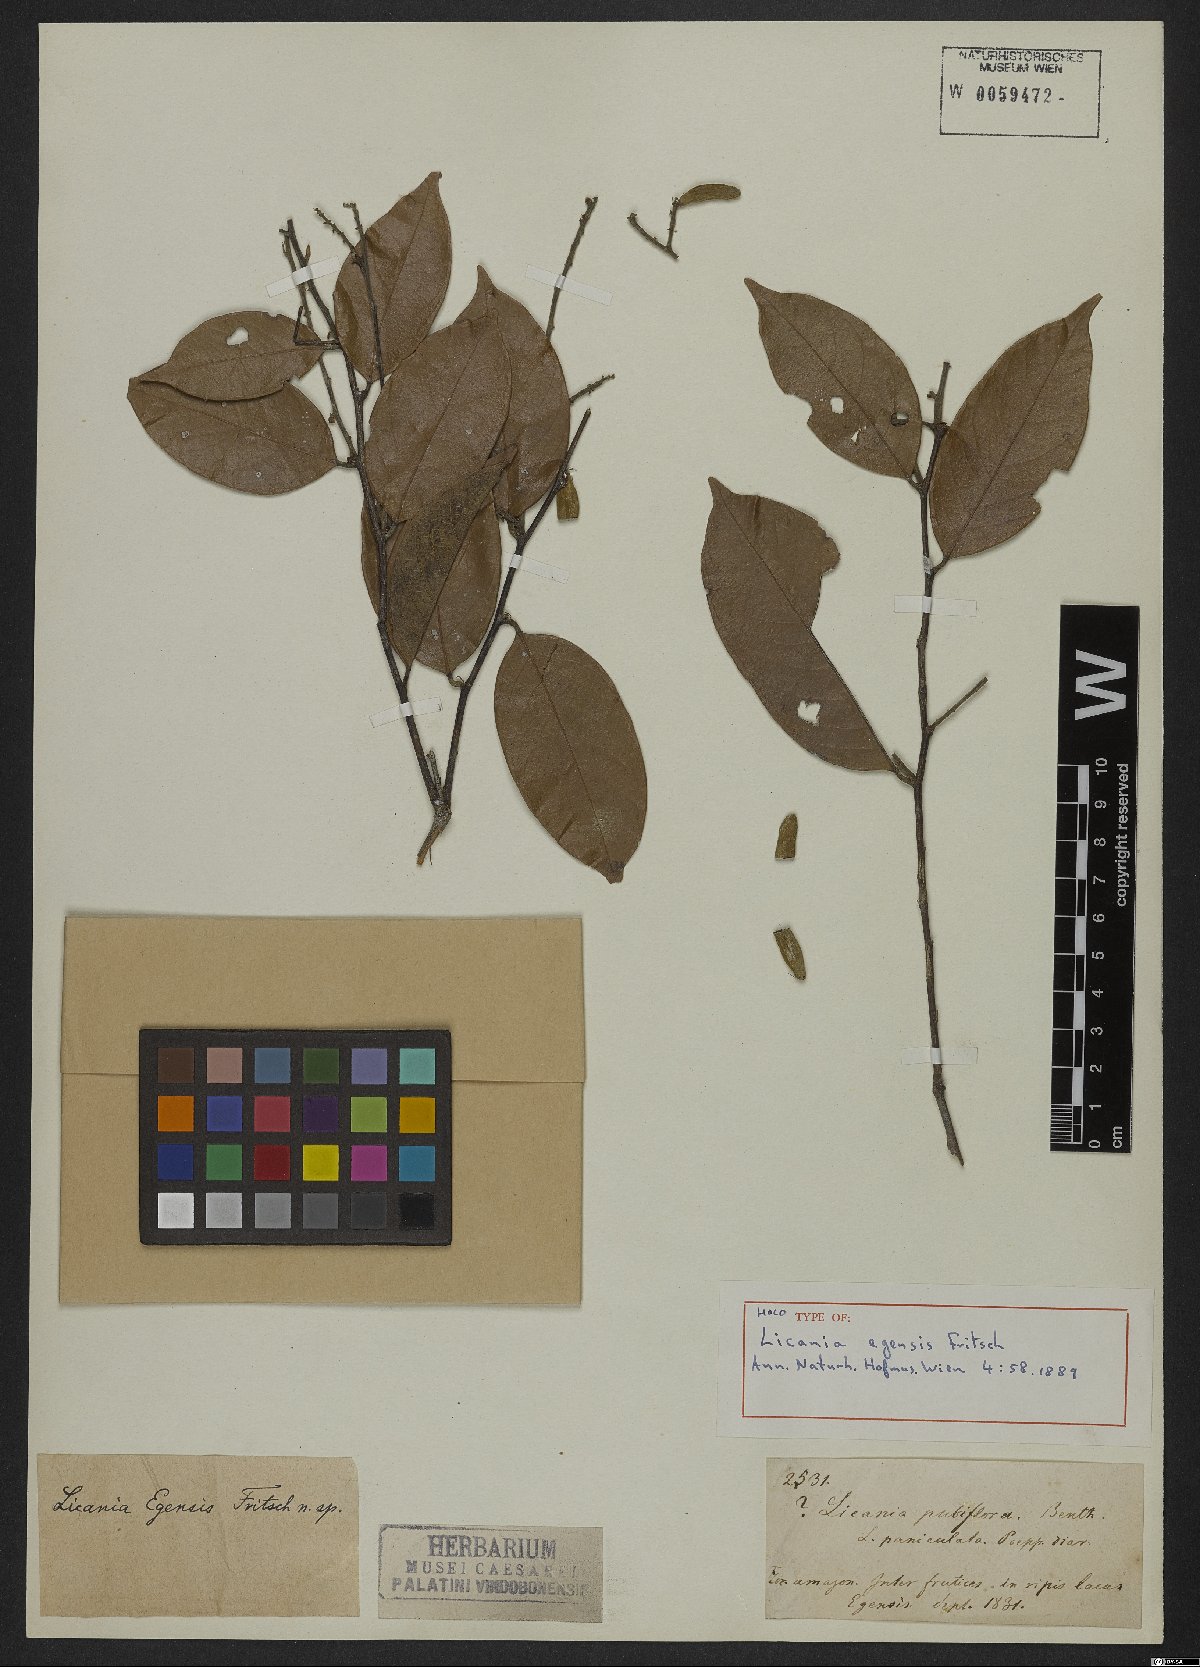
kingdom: Plantae
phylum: Tracheophyta
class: Magnoliopsida
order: Malpighiales
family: Chrysobalanaceae
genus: Licania
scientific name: Licania octandra
